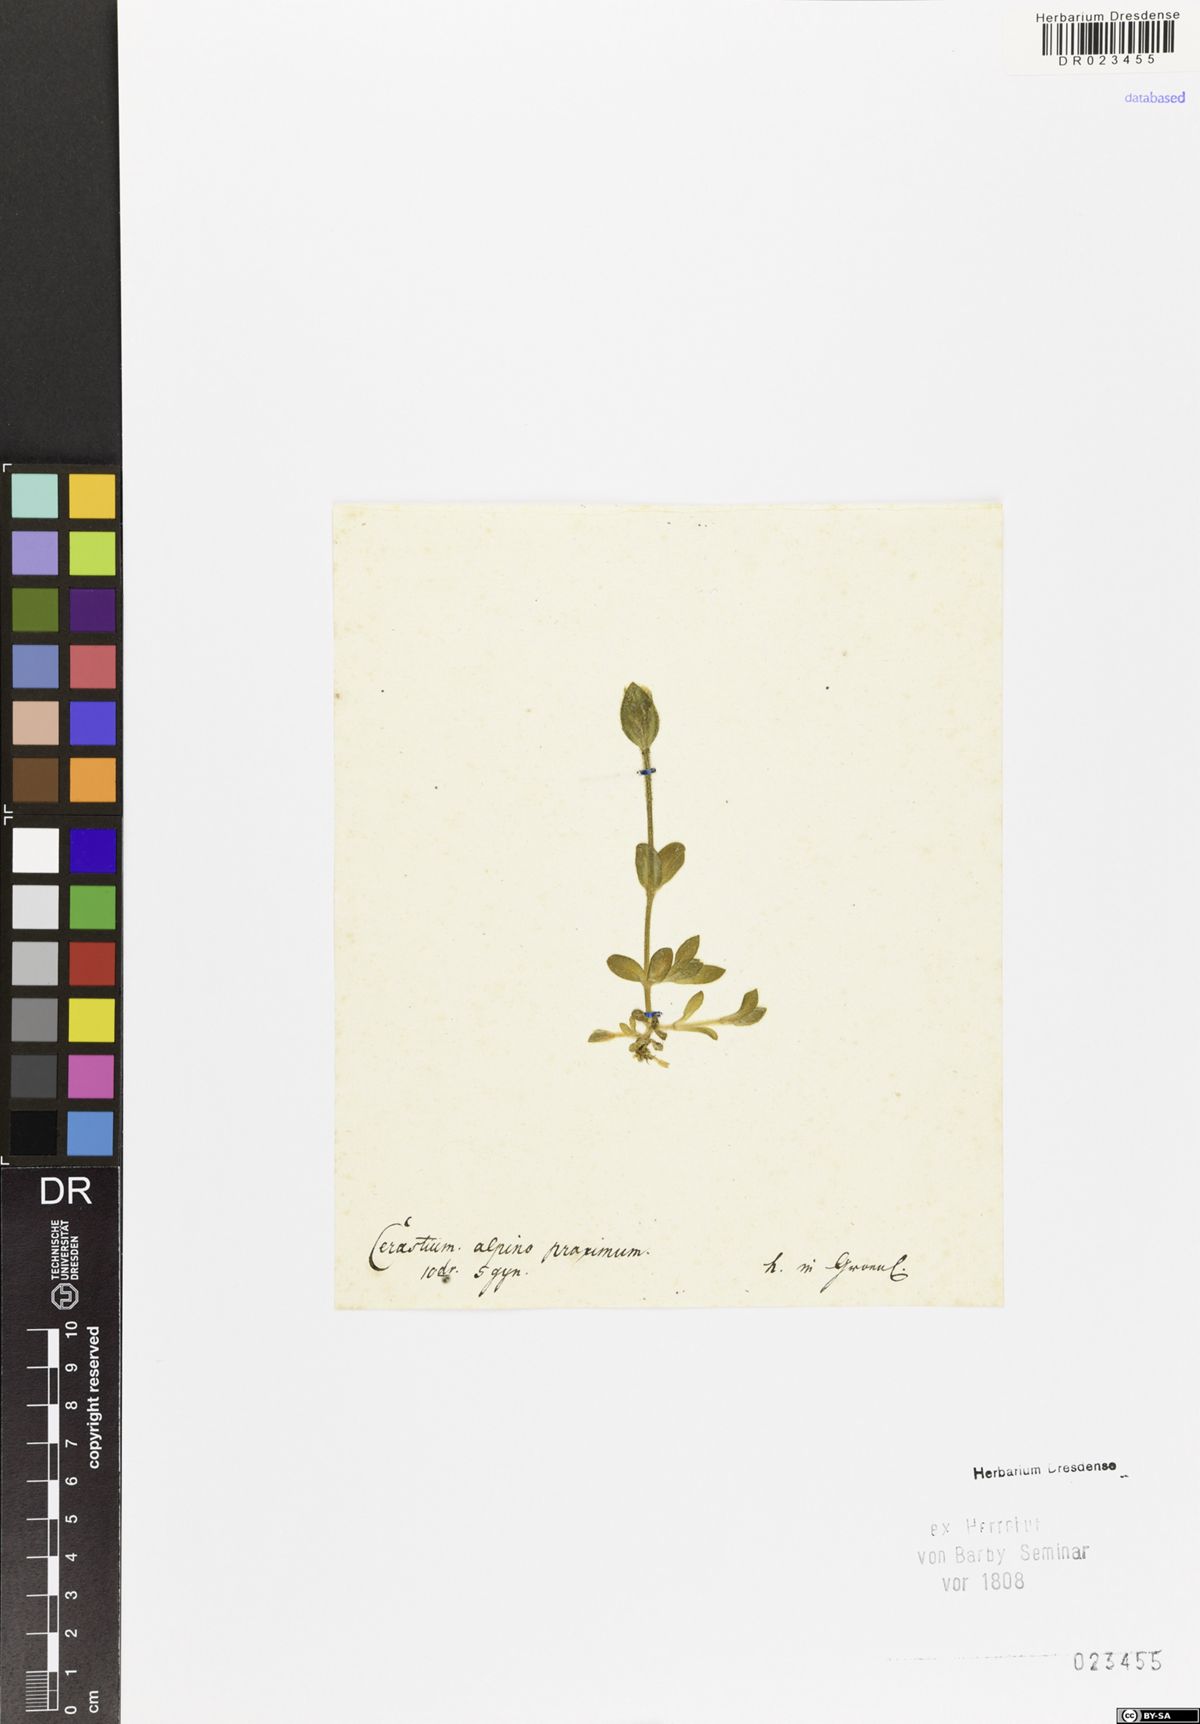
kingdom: Plantae
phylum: Tracheophyta
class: Magnoliopsida
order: Caryophyllales
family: Caryophyllaceae
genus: Cerastium
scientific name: Cerastium
